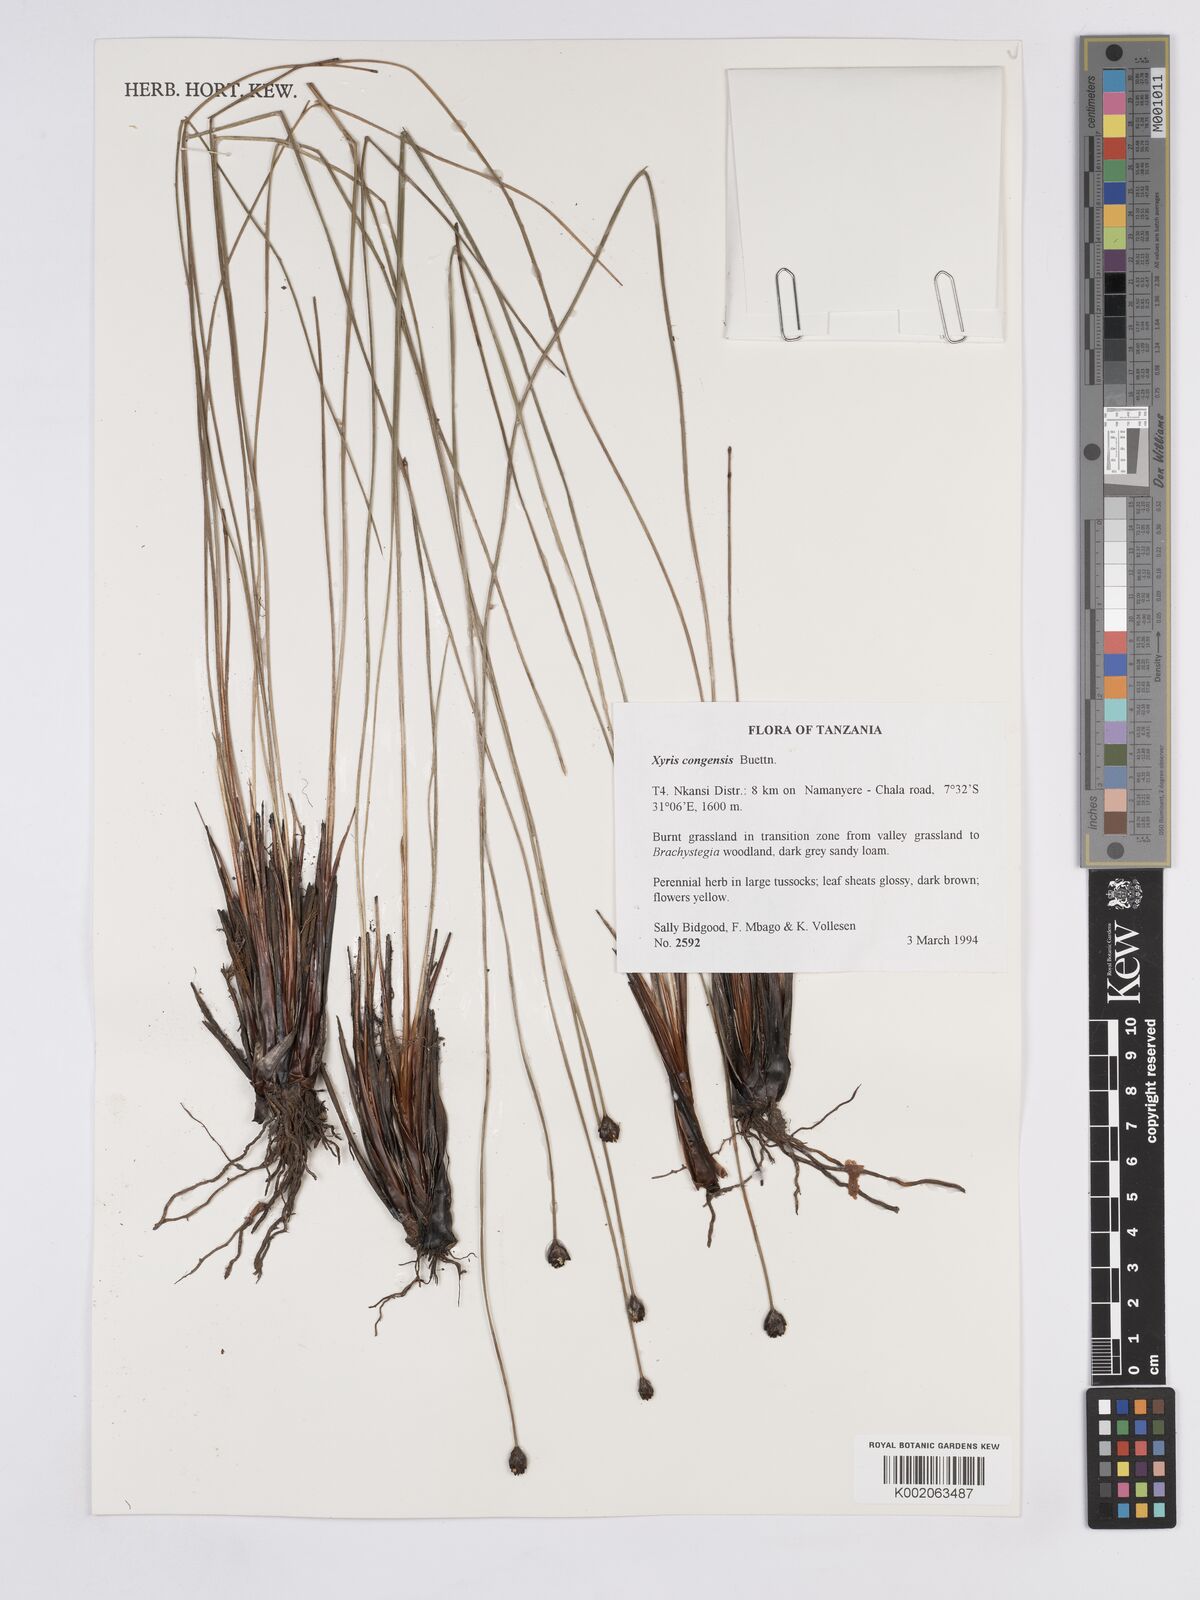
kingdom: Plantae
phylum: Tracheophyta
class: Liliopsida
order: Poales
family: Xyridaceae
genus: Xyris
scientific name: Xyris congensis
